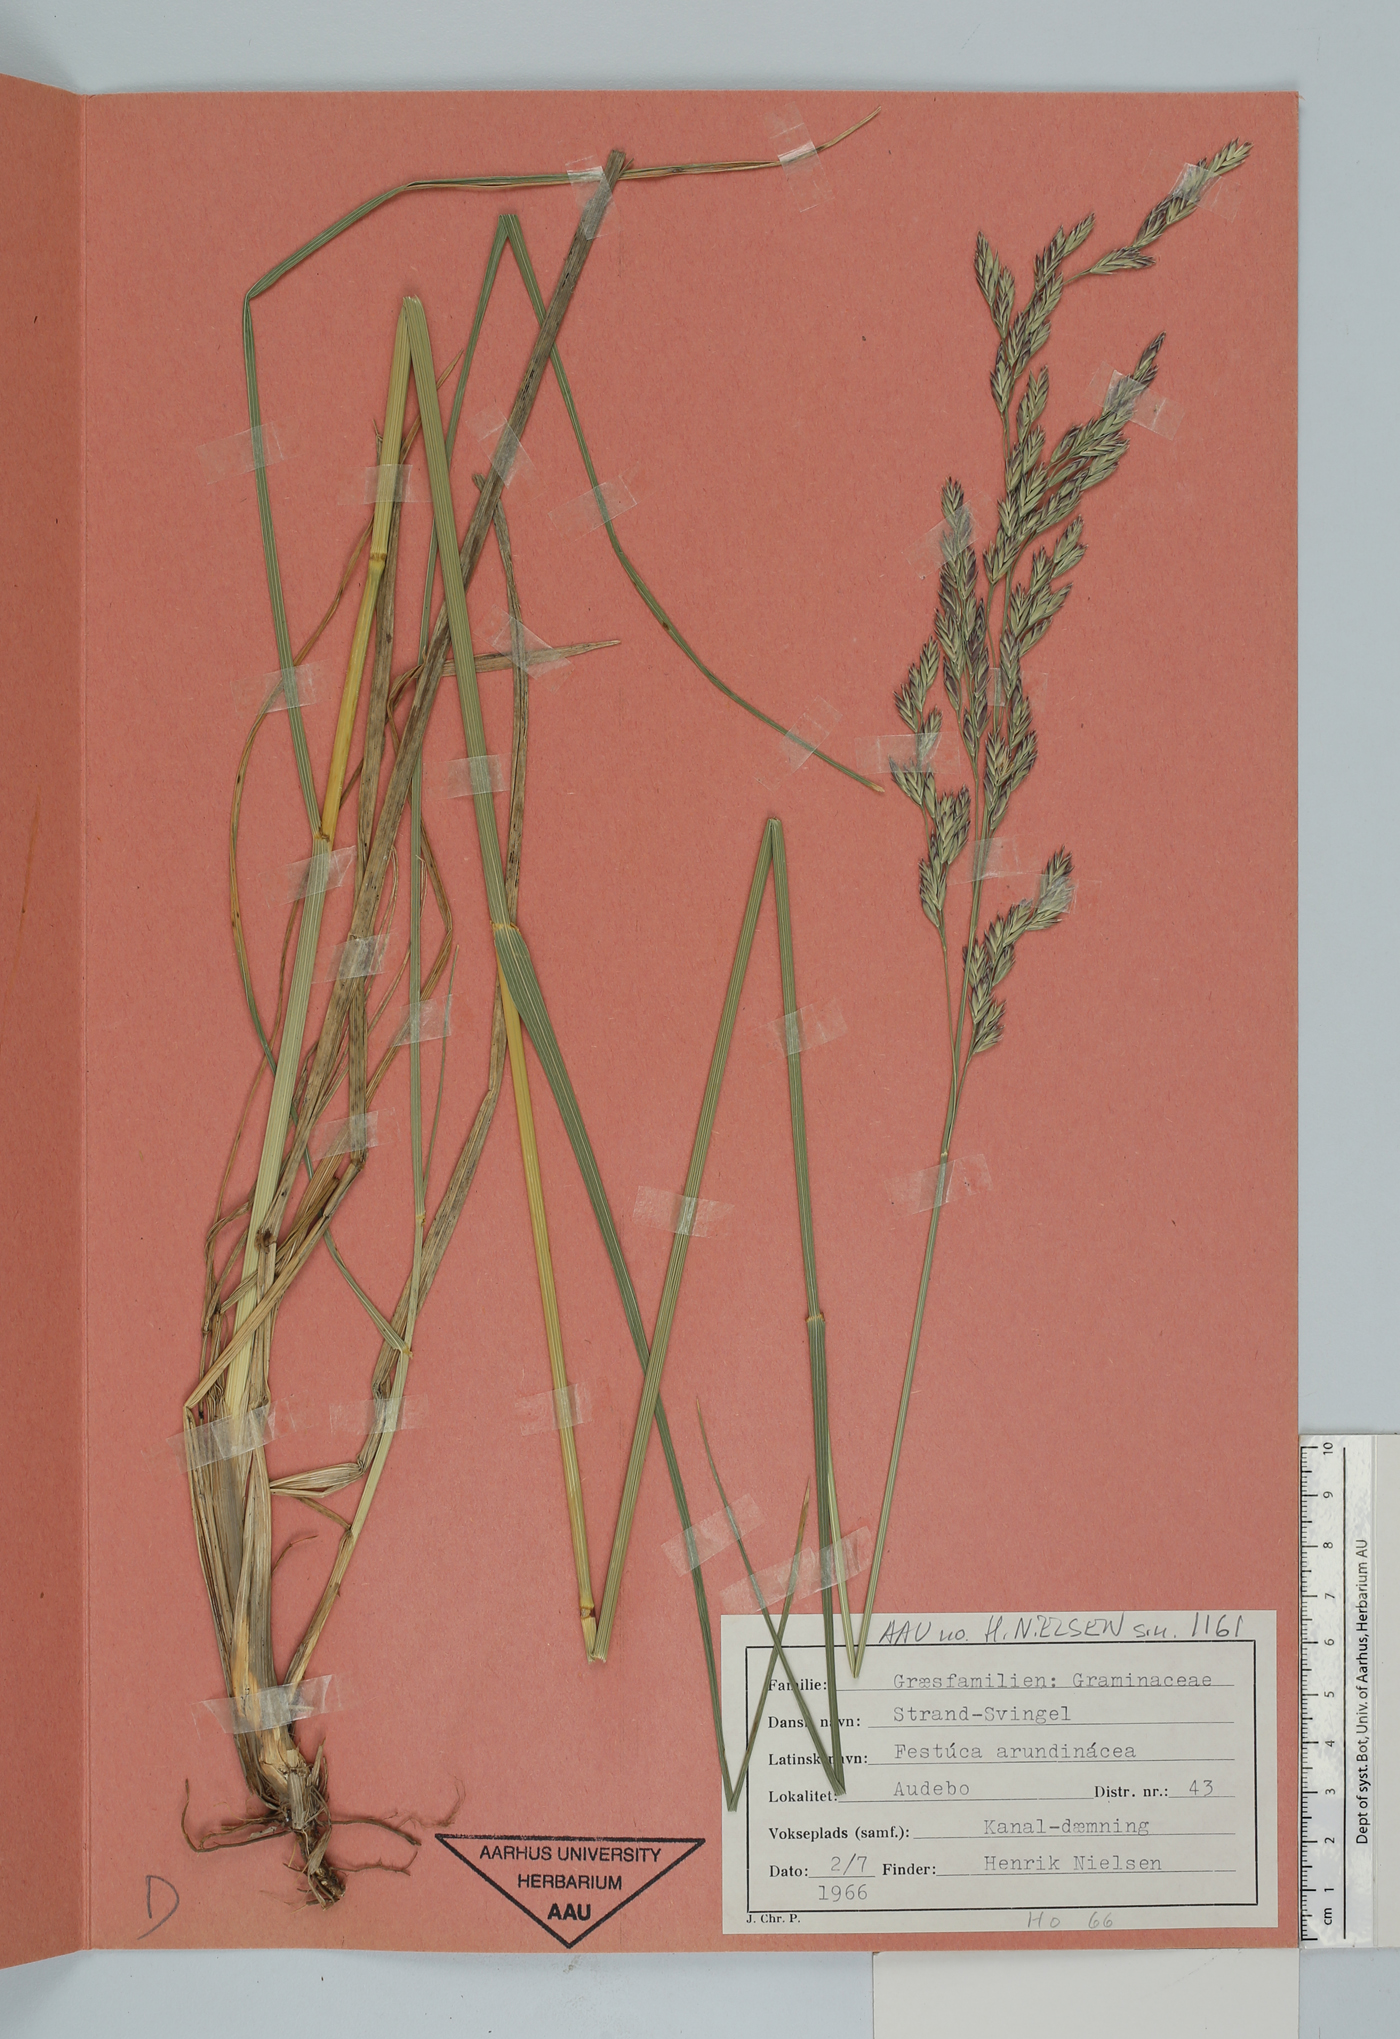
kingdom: Plantae
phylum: Tracheophyta
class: Liliopsida
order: Poales
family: Poaceae
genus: Lolium
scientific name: Lolium arundinaceum
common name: Reed fescue
